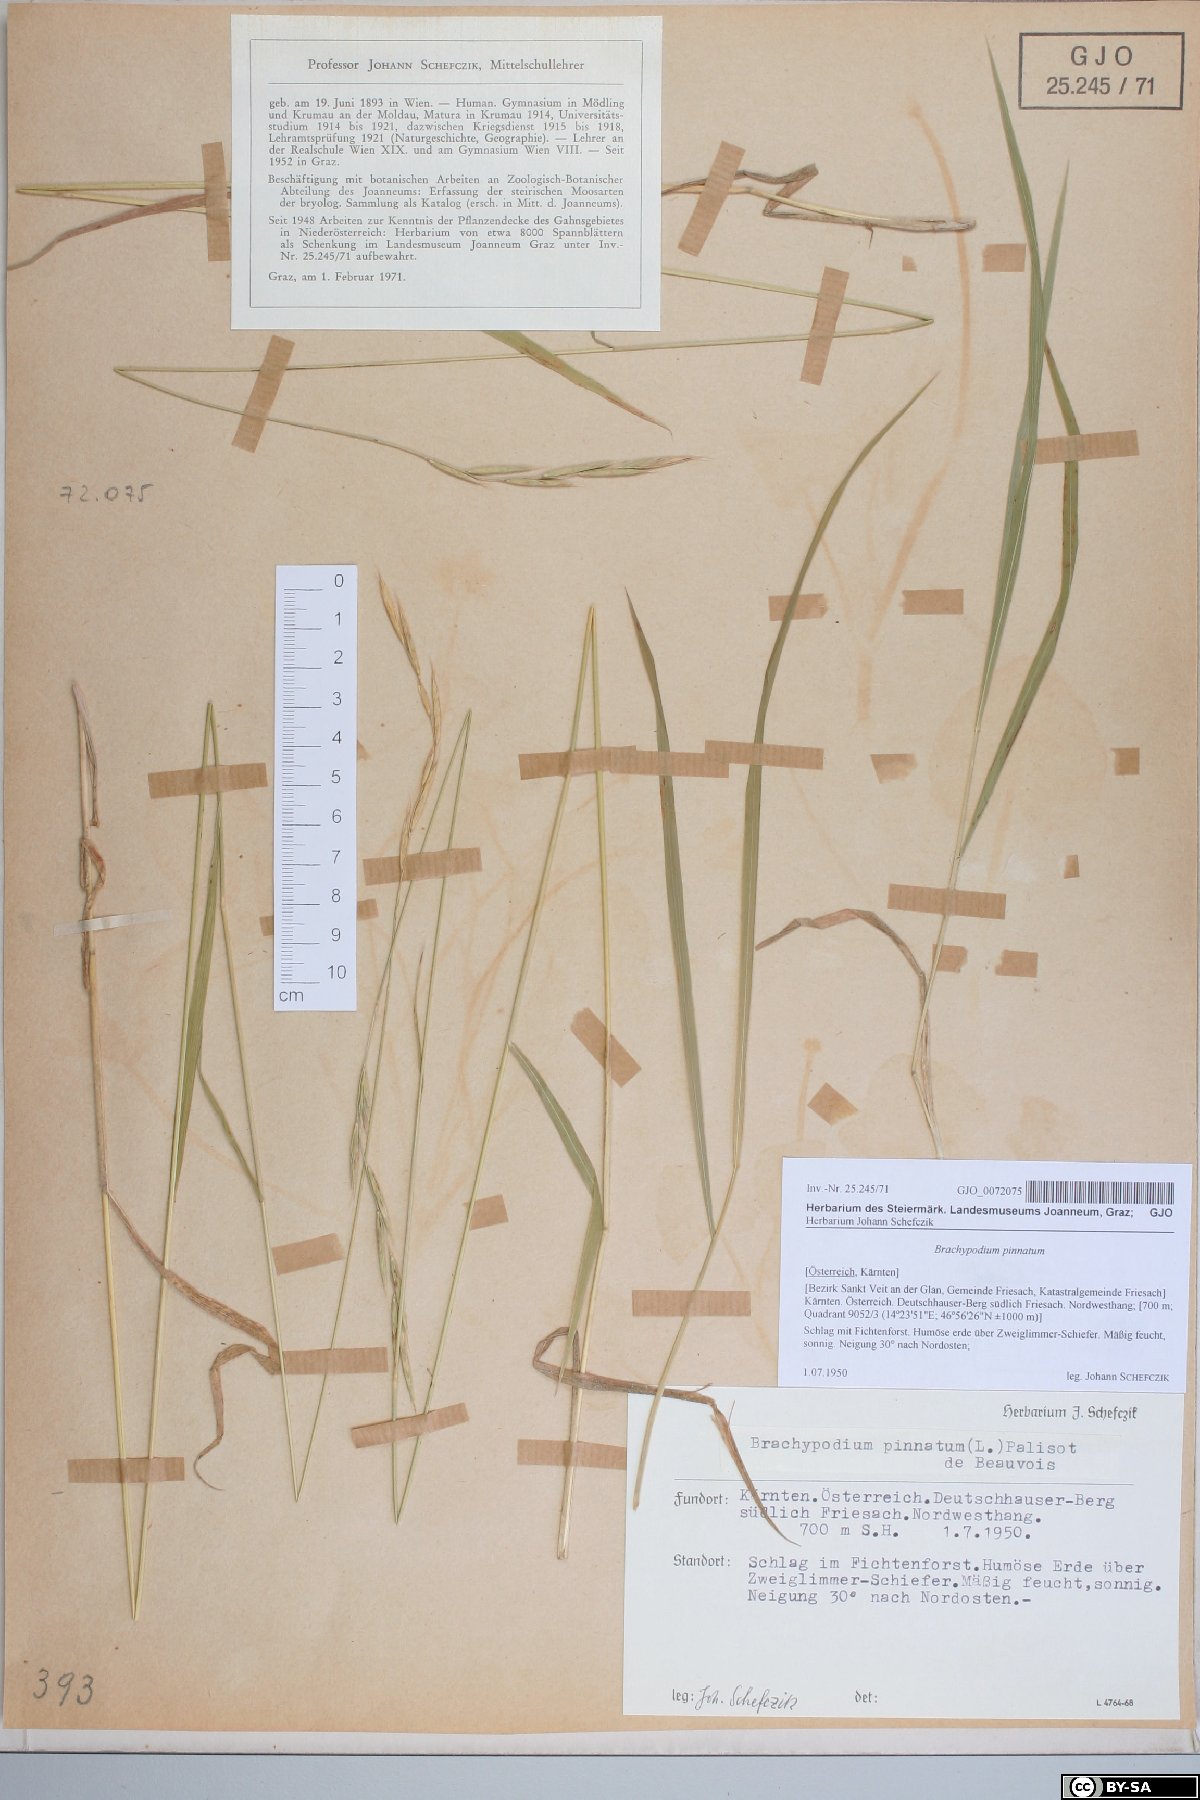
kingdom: Plantae
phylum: Tracheophyta
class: Liliopsida
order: Poales
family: Poaceae
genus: Brachypodium
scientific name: Brachypodium pinnatum
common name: Tor grass
